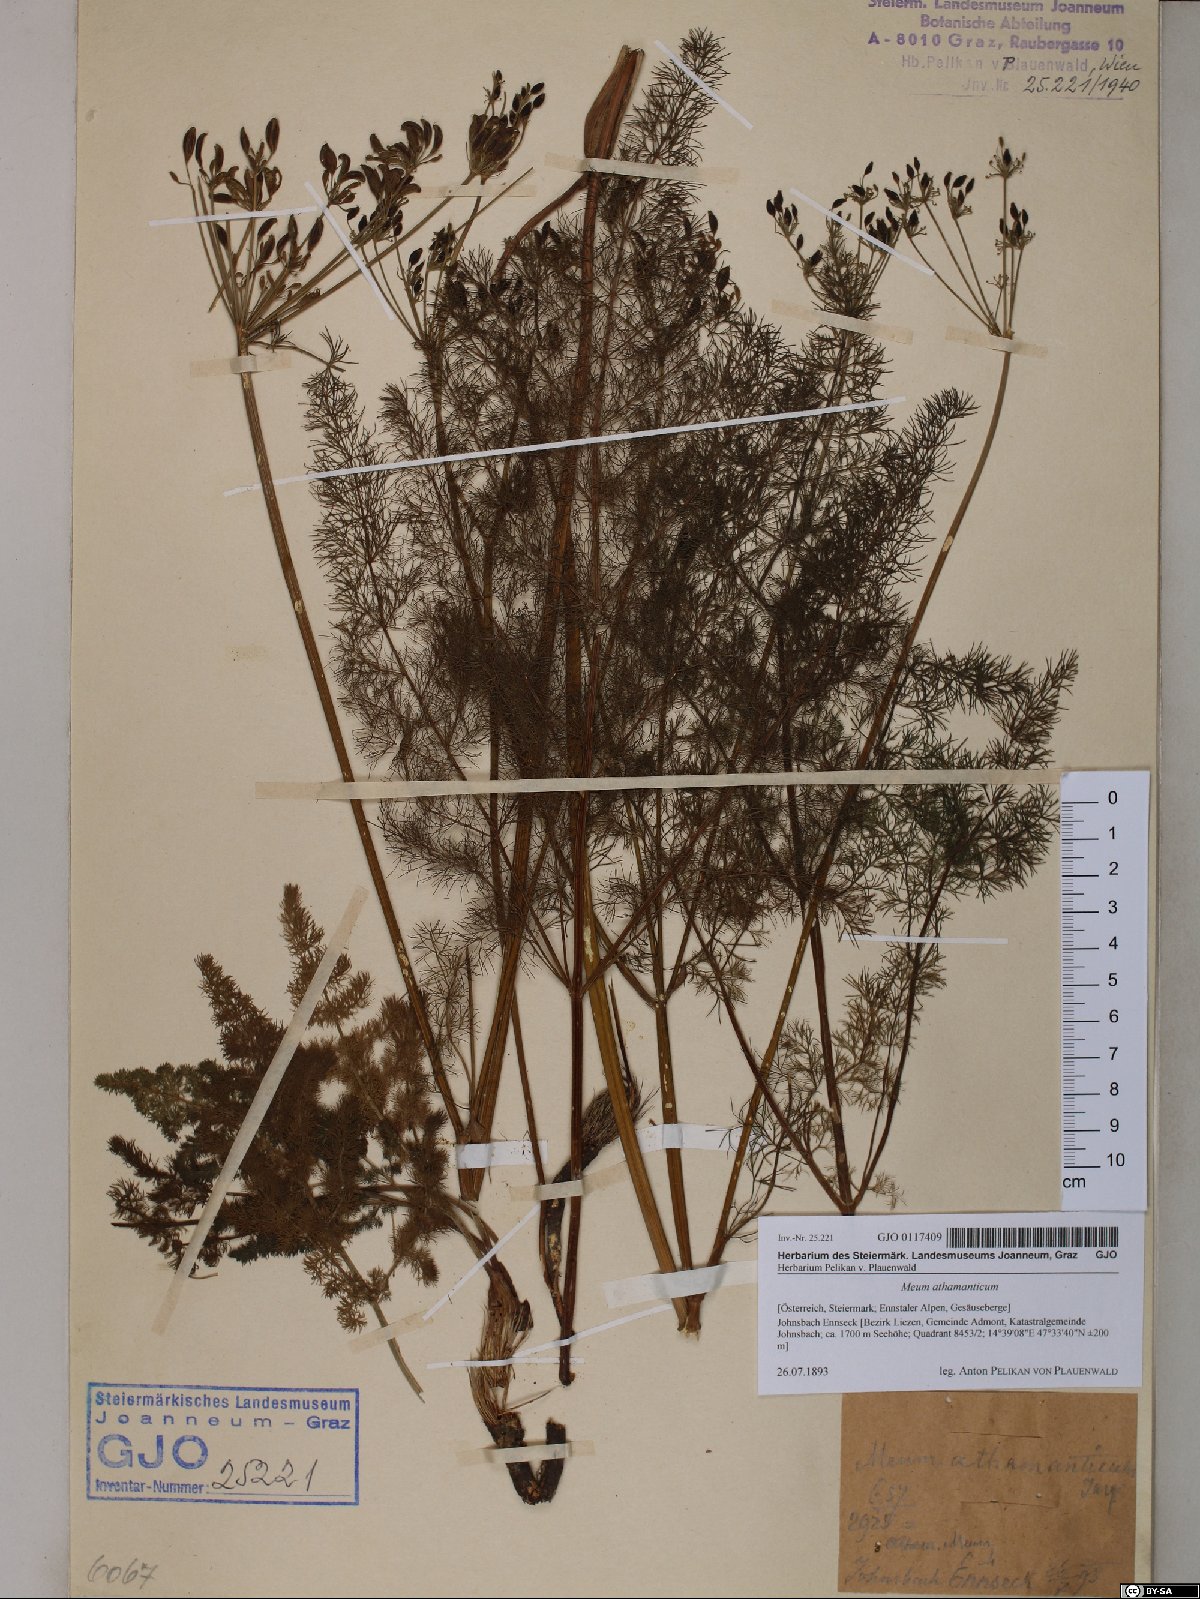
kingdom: Plantae
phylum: Tracheophyta
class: Magnoliopsida
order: Apiales
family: Apiaceae
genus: Meum
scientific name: Meum athamanticum
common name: Spignel
